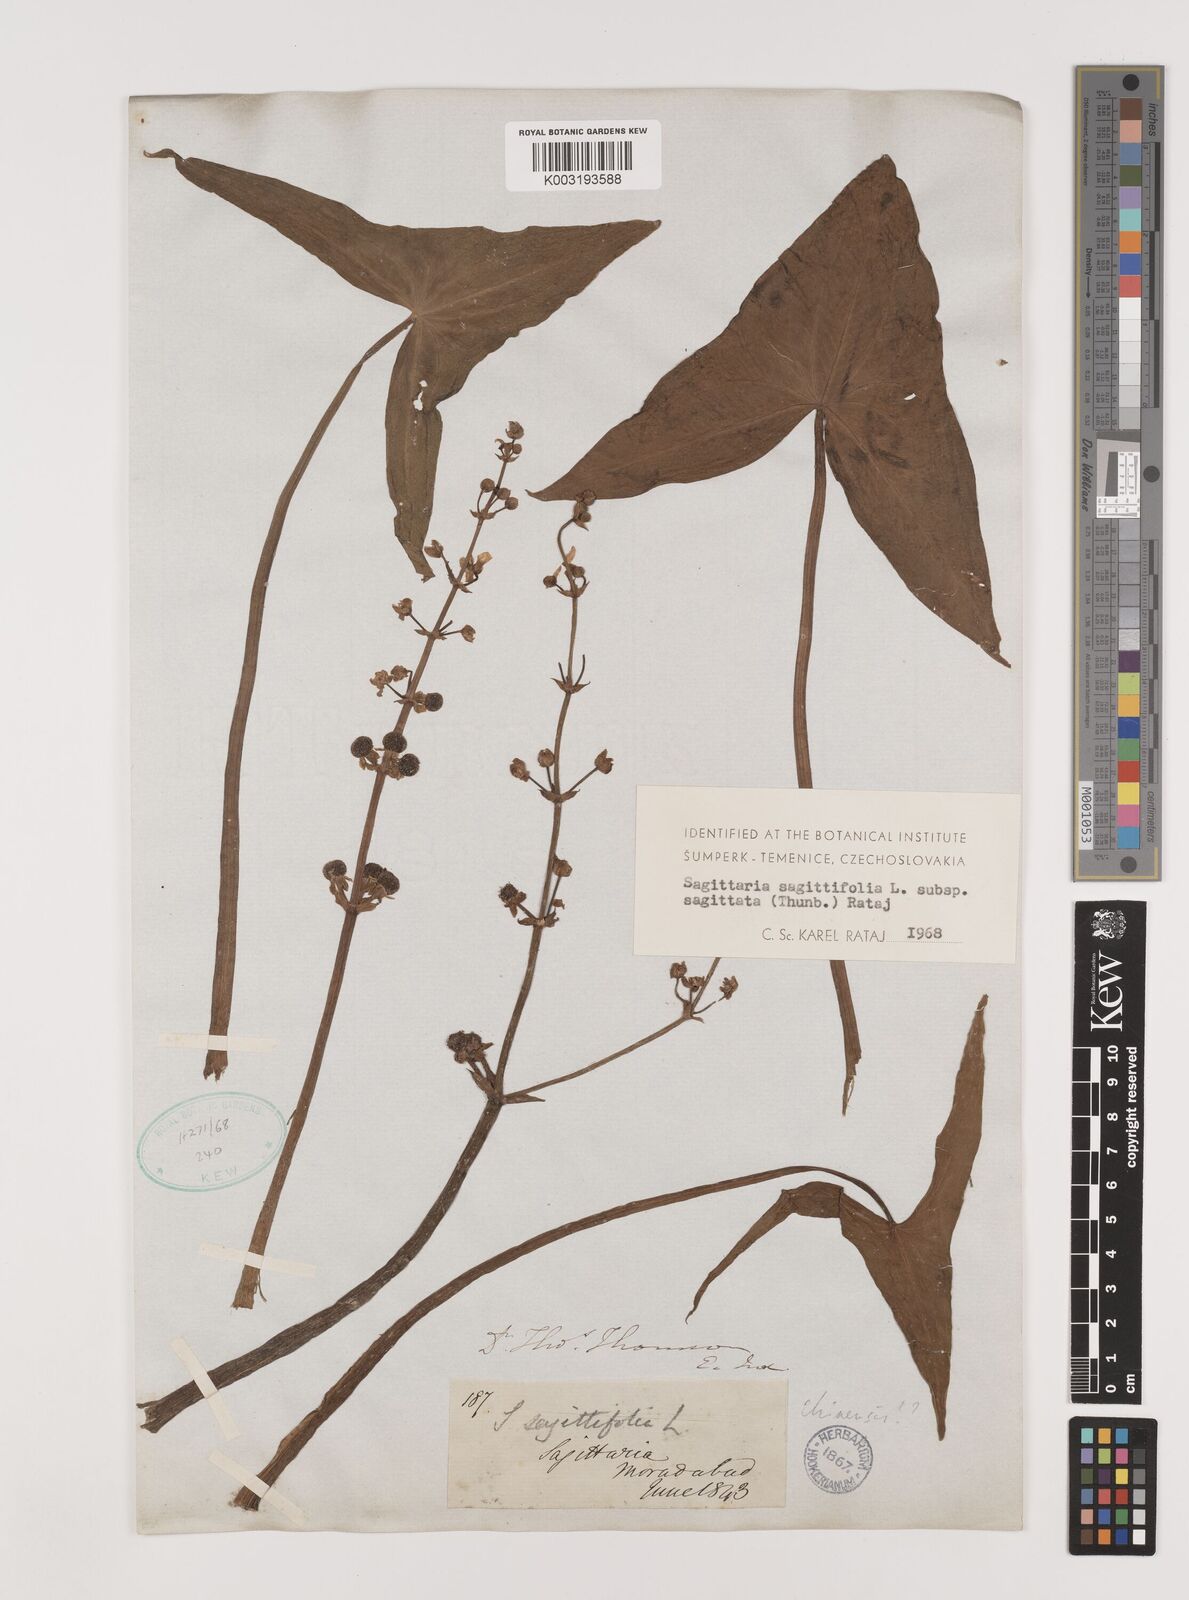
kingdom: Plantae
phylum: Tracheophyta
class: Liliopsida
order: Alismatales
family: Alismataceae
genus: Sagittaria
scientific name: Sagittaria sagittifolia
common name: Arrowhead
